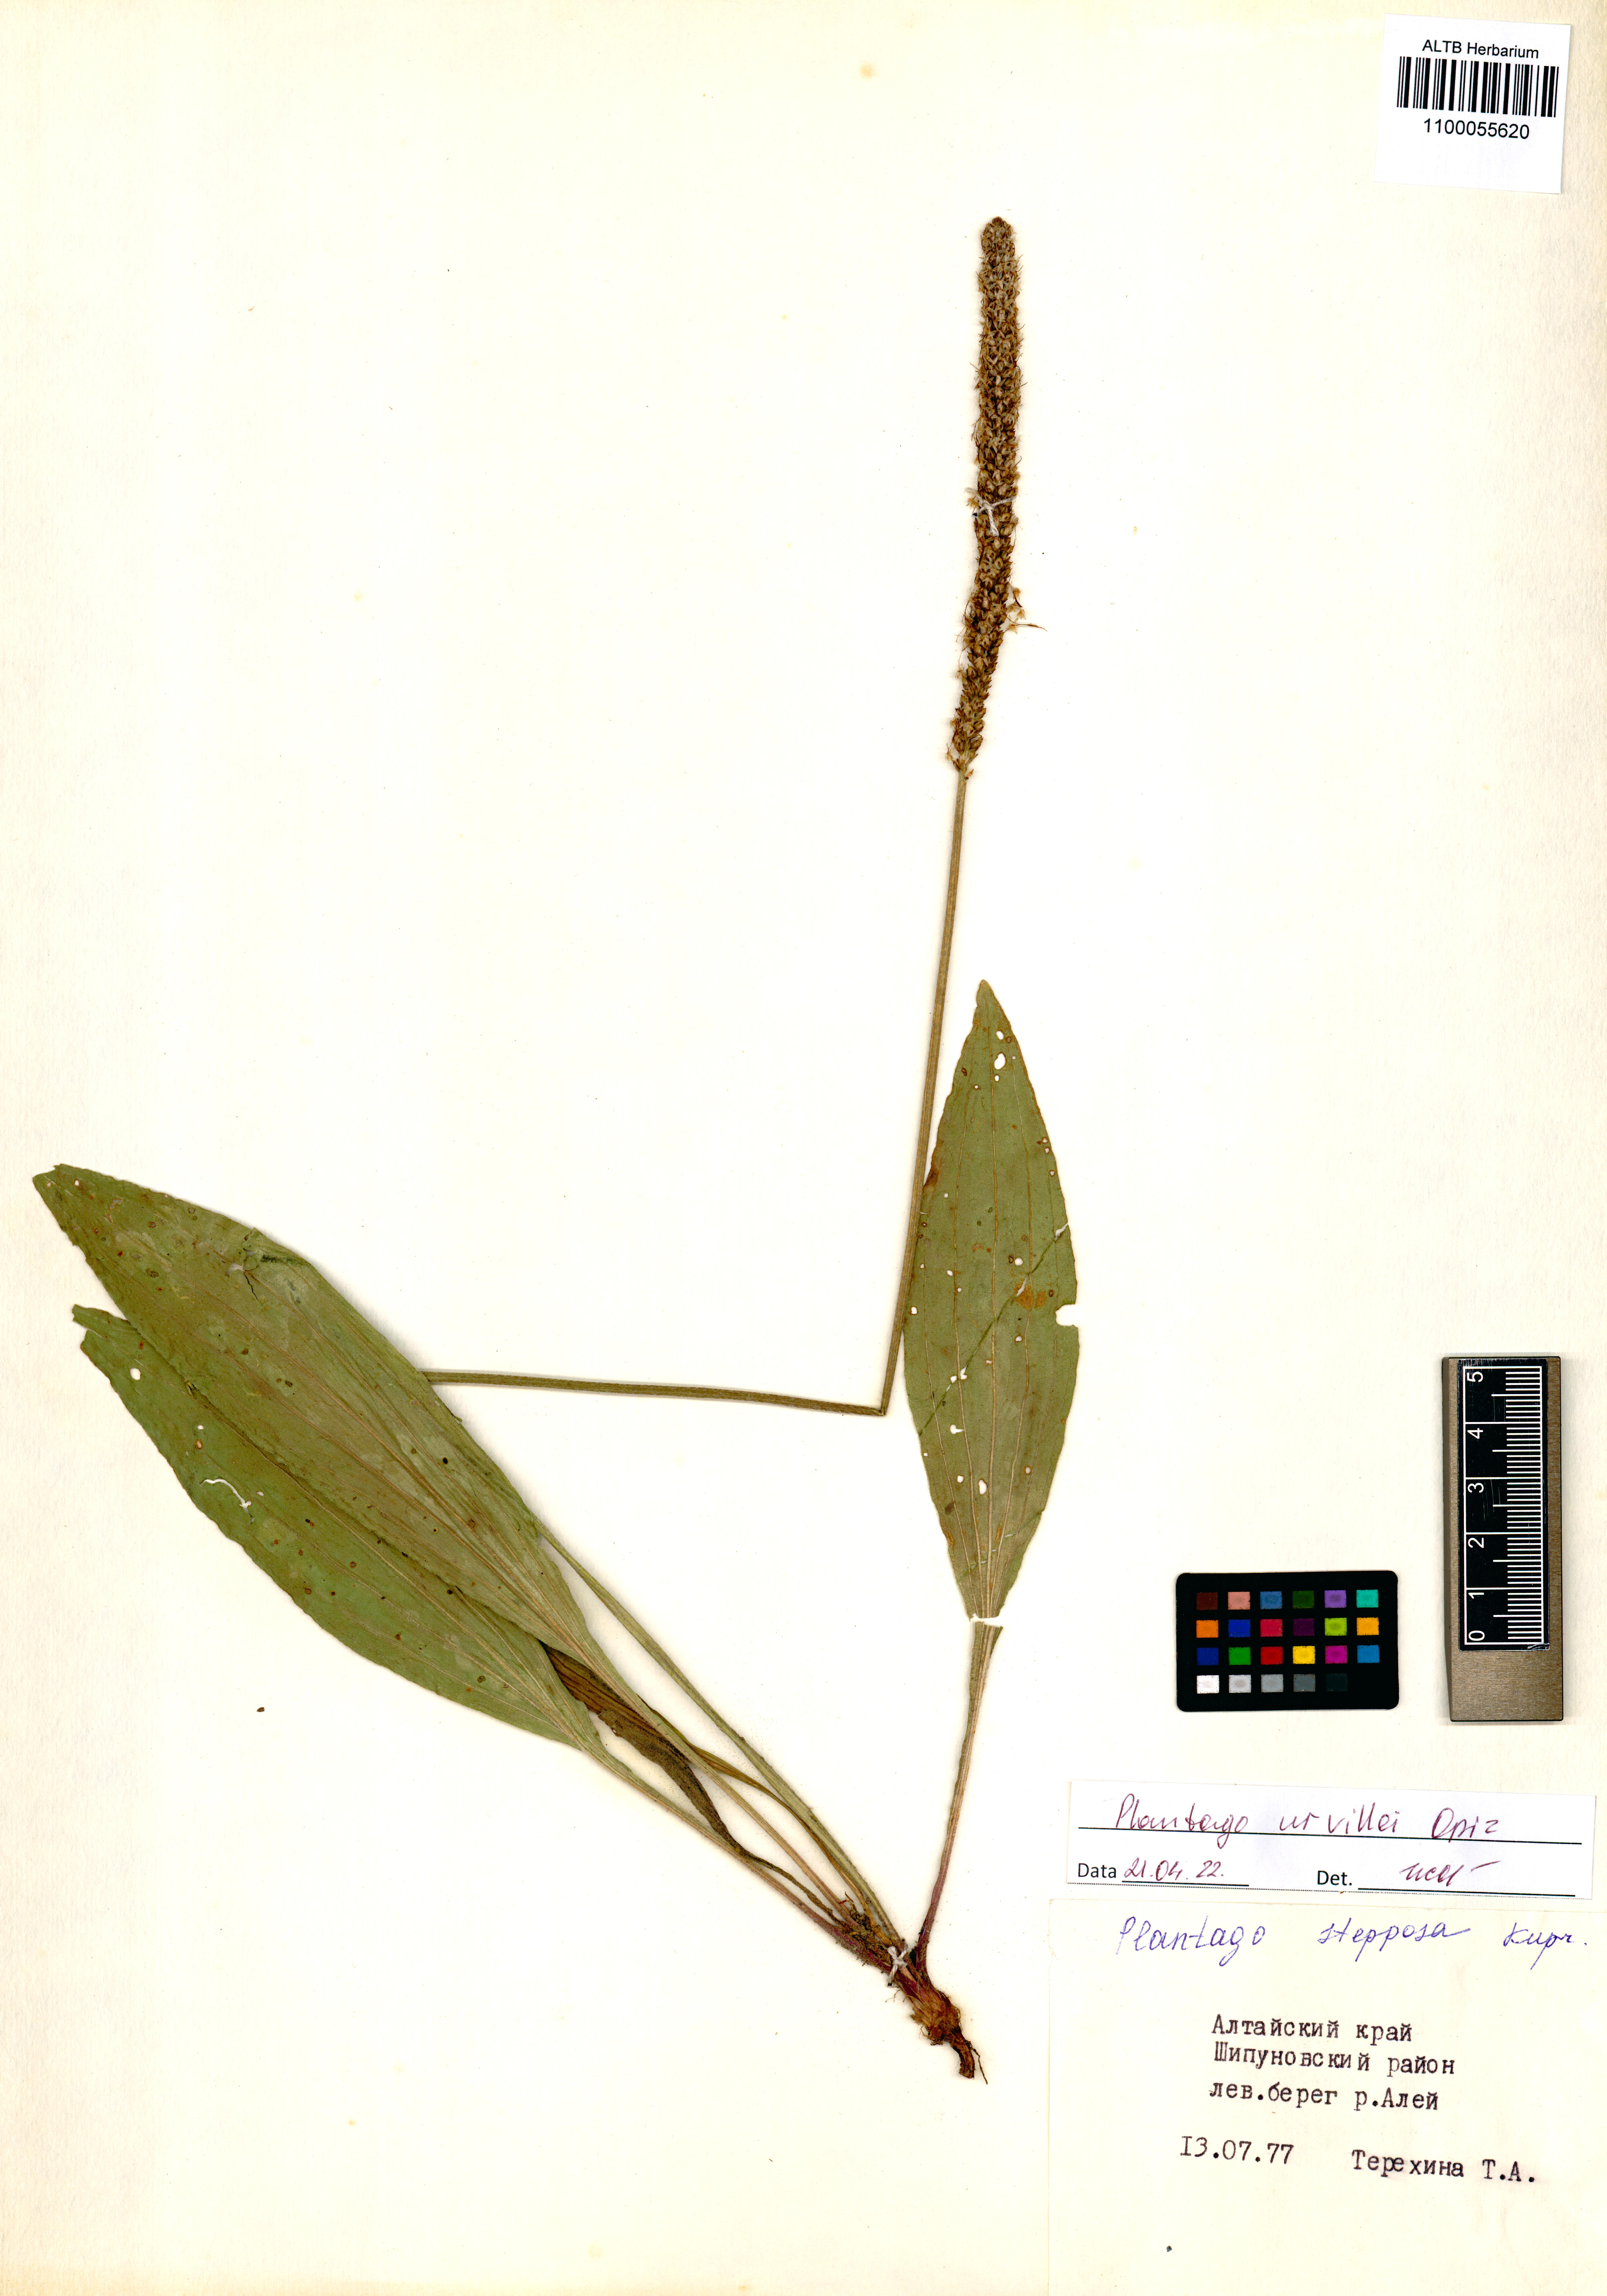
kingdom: Plantae
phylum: Tracheophyta
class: Magnoliopsida
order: Lamiales
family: Plantaginaceae
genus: Plantago
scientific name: Plantago urvillei
